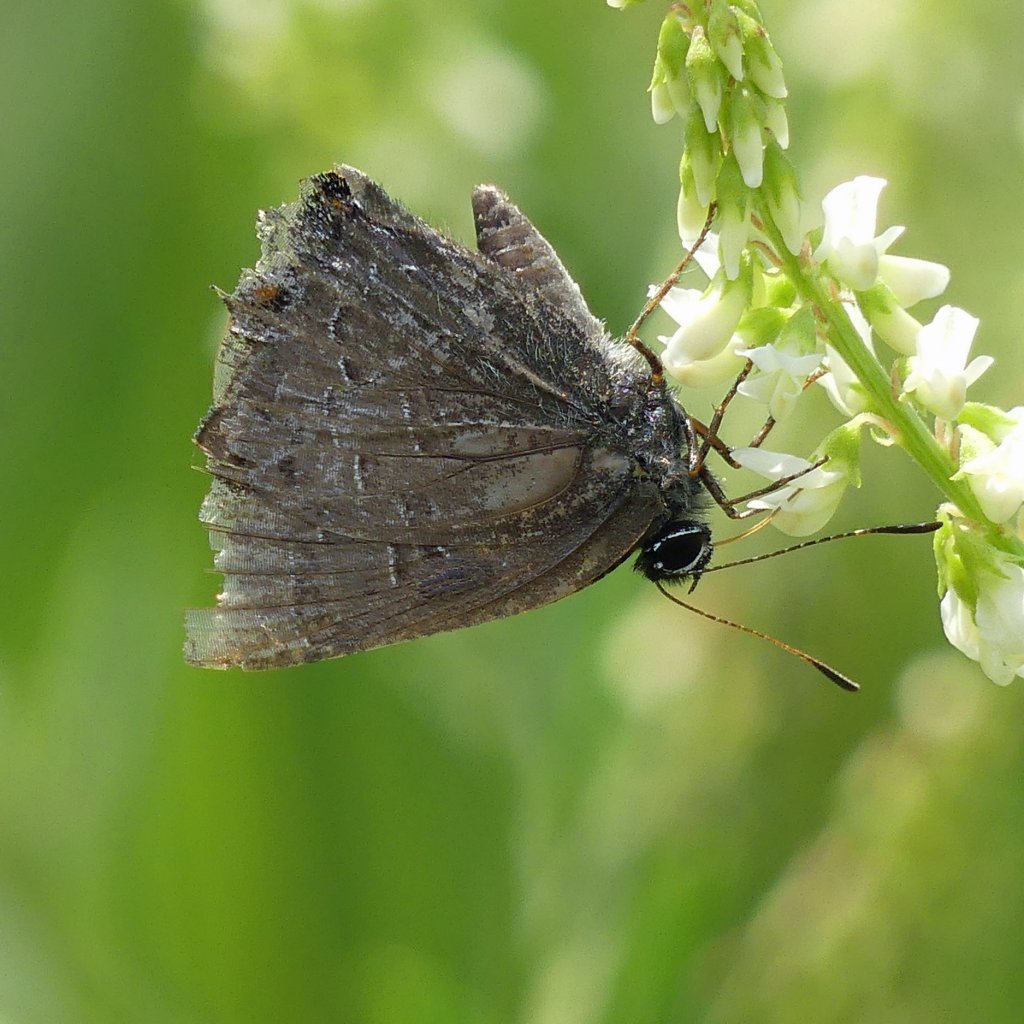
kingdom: Animalia
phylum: Arthropoda
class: Insecta
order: Lepidoptera
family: Lycaenidae
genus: Satyrium
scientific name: Satyrium calanus
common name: Banded Hairstreak
